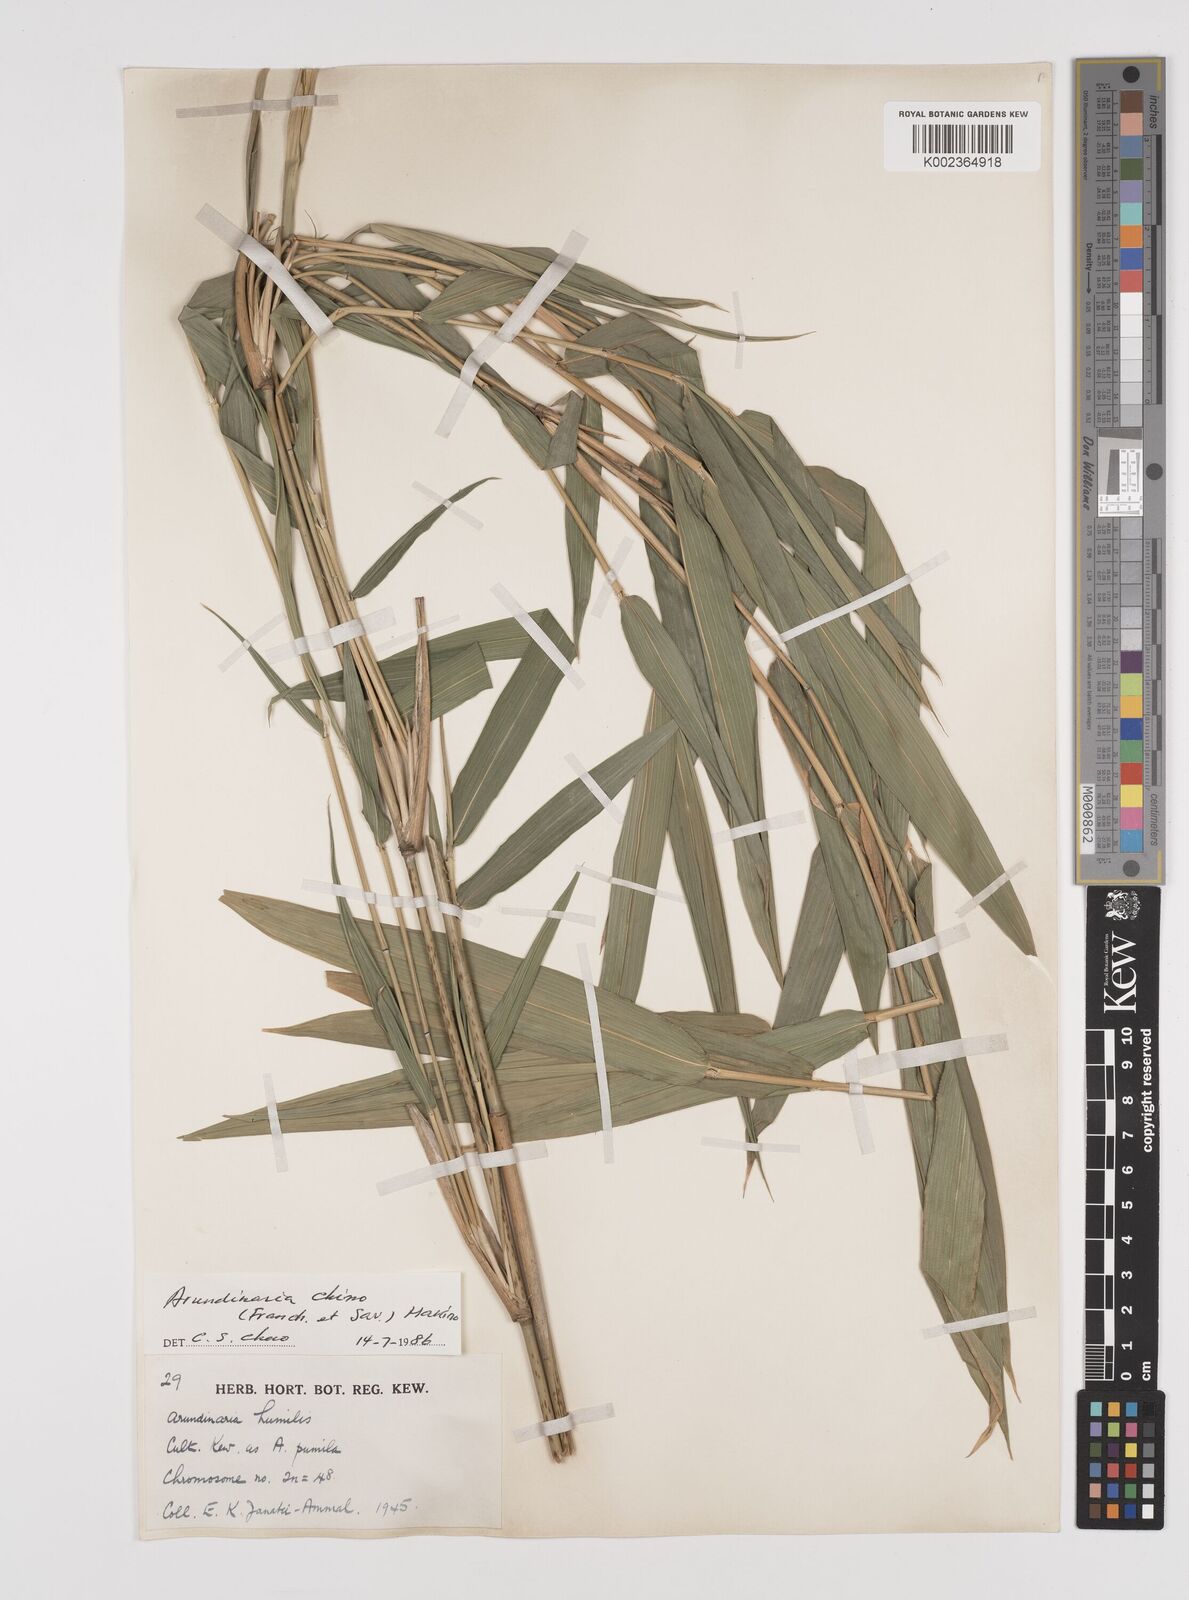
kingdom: Plantae
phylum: Tracheophyta
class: Liliopsida
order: Poales
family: Poaceae
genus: Pleioblastus
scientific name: Pleioblastus argenteostriatus
